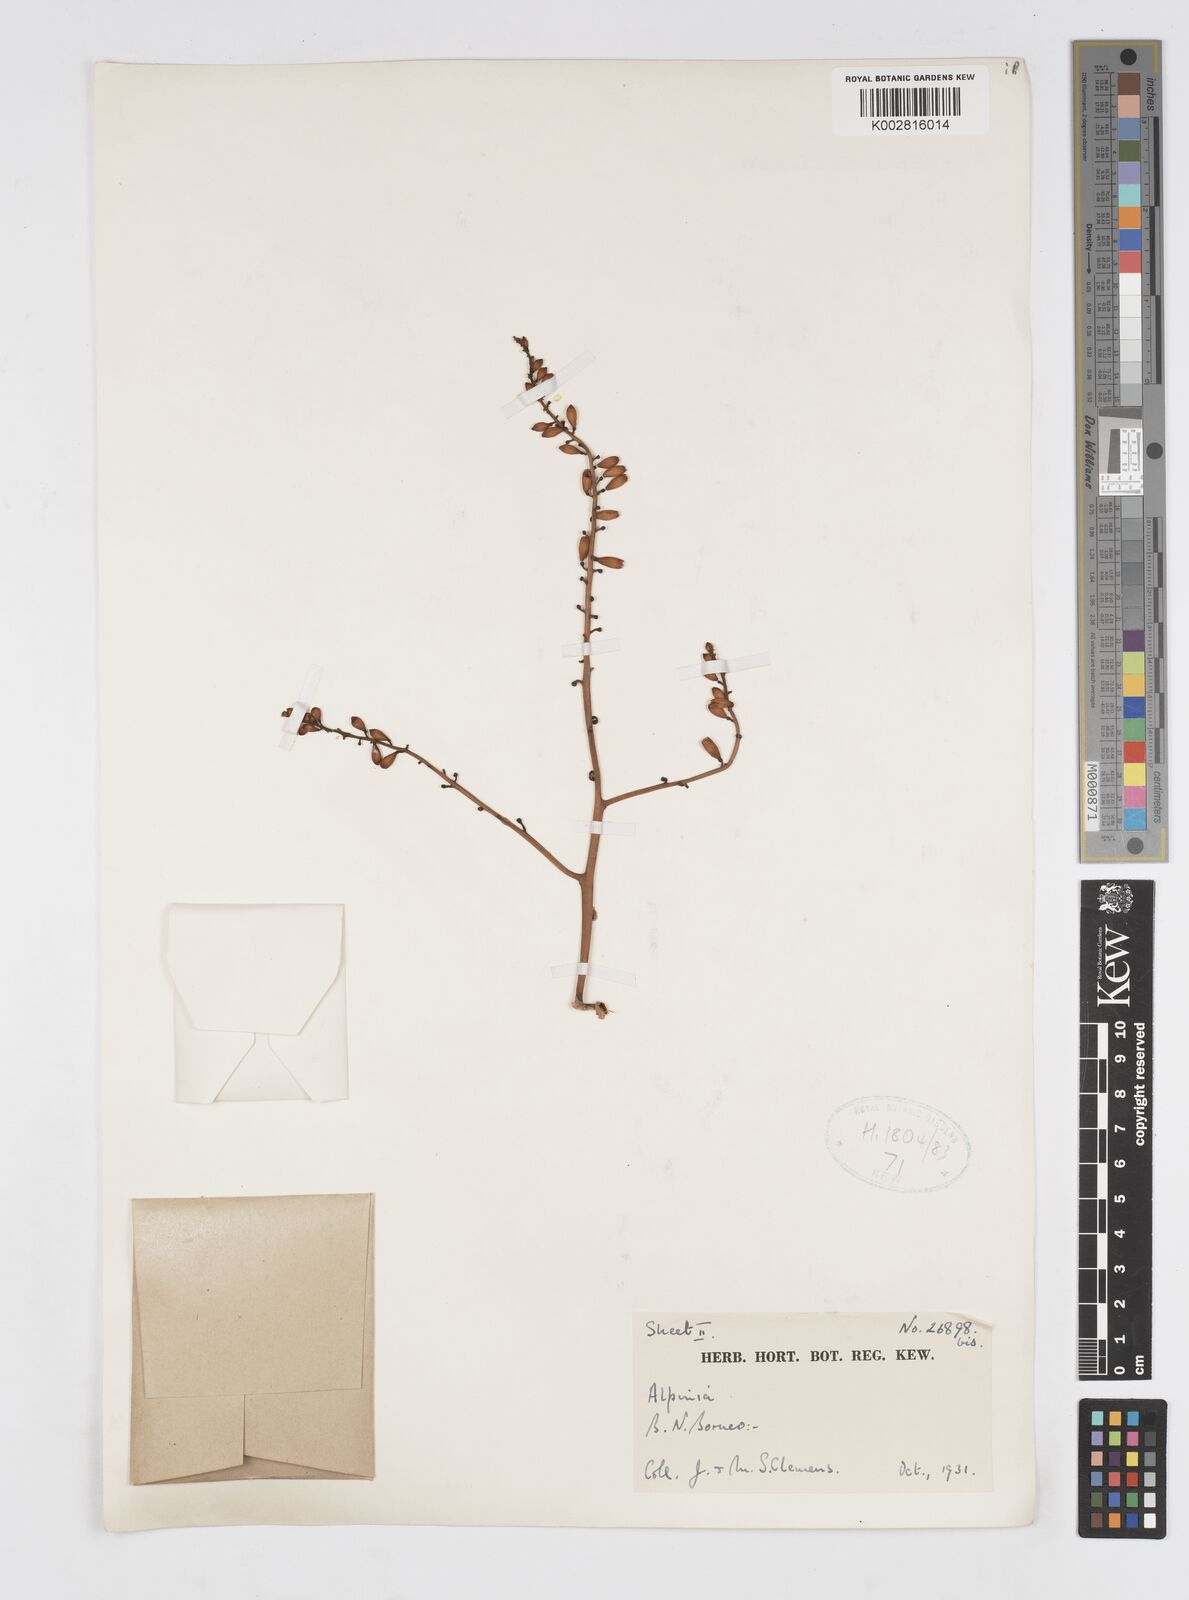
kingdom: Plantae
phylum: Tracheophyta
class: Liliopsida
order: Zingiberales
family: Zingiberaceae
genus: Alpinia
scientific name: Alpinia nieuwenhuizii
